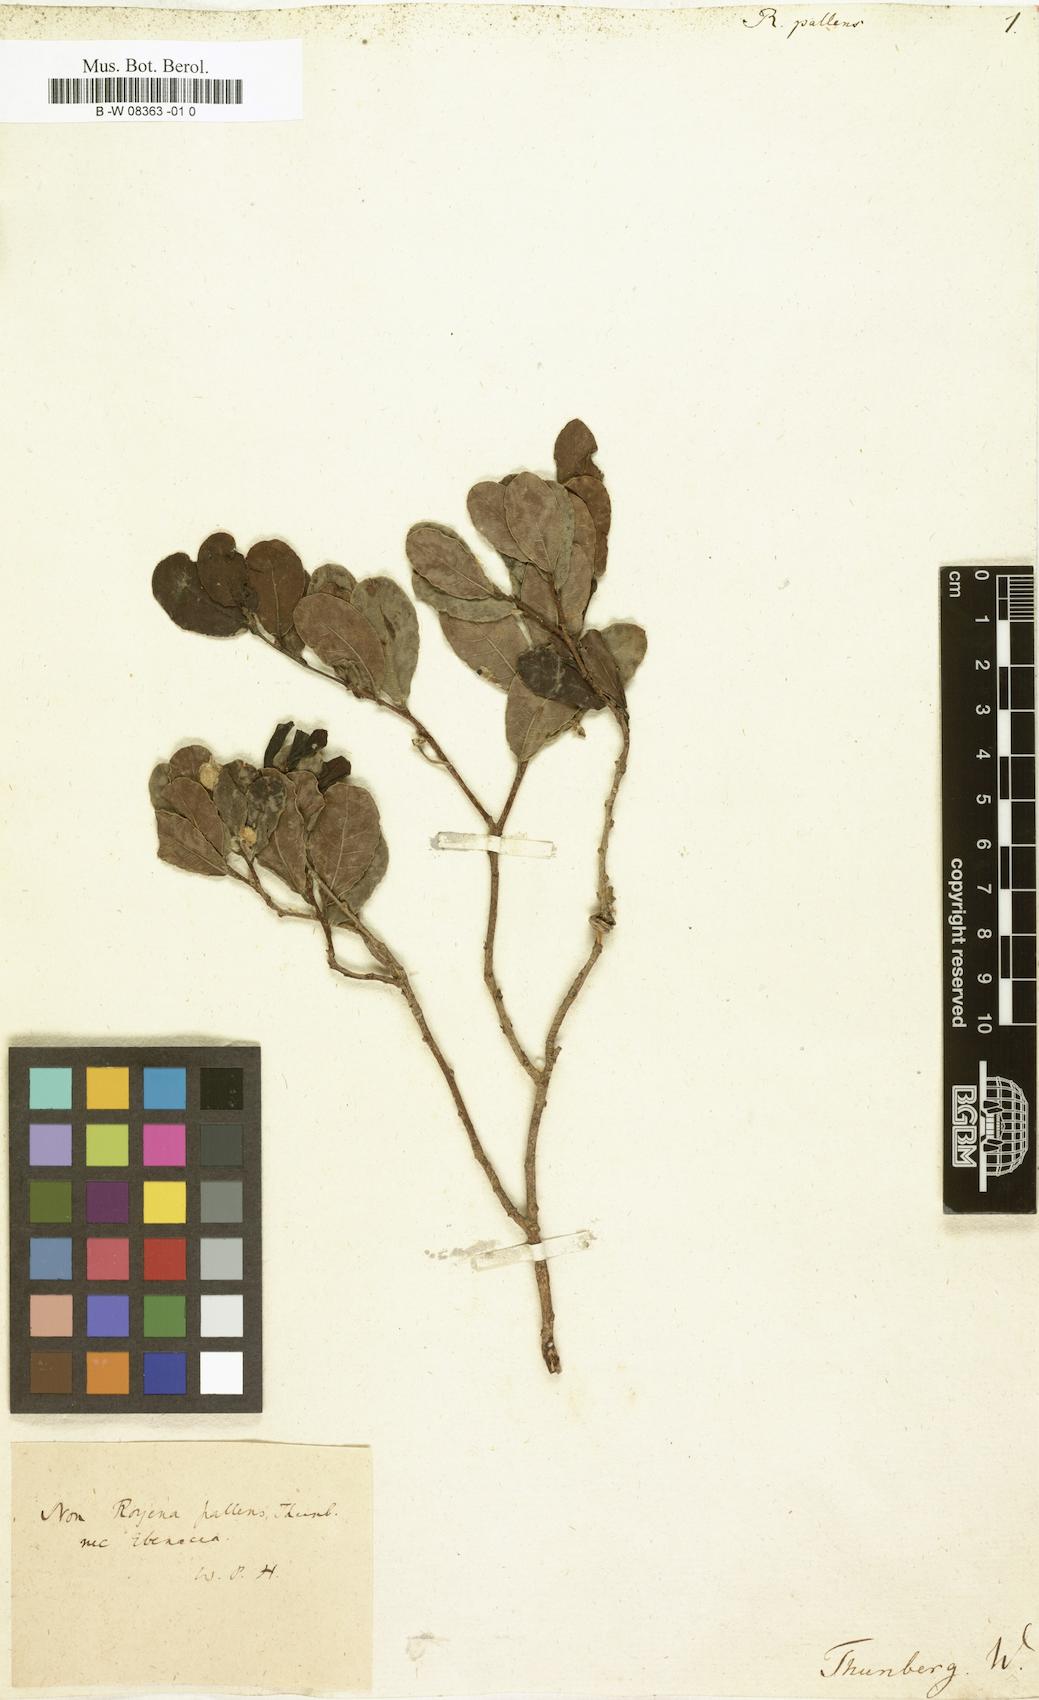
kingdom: Plantae
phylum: Tracheophyta
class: Magnoliopsida
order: Ericales
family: Ebenaceae
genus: Diospyros
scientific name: Diospyros pallens
